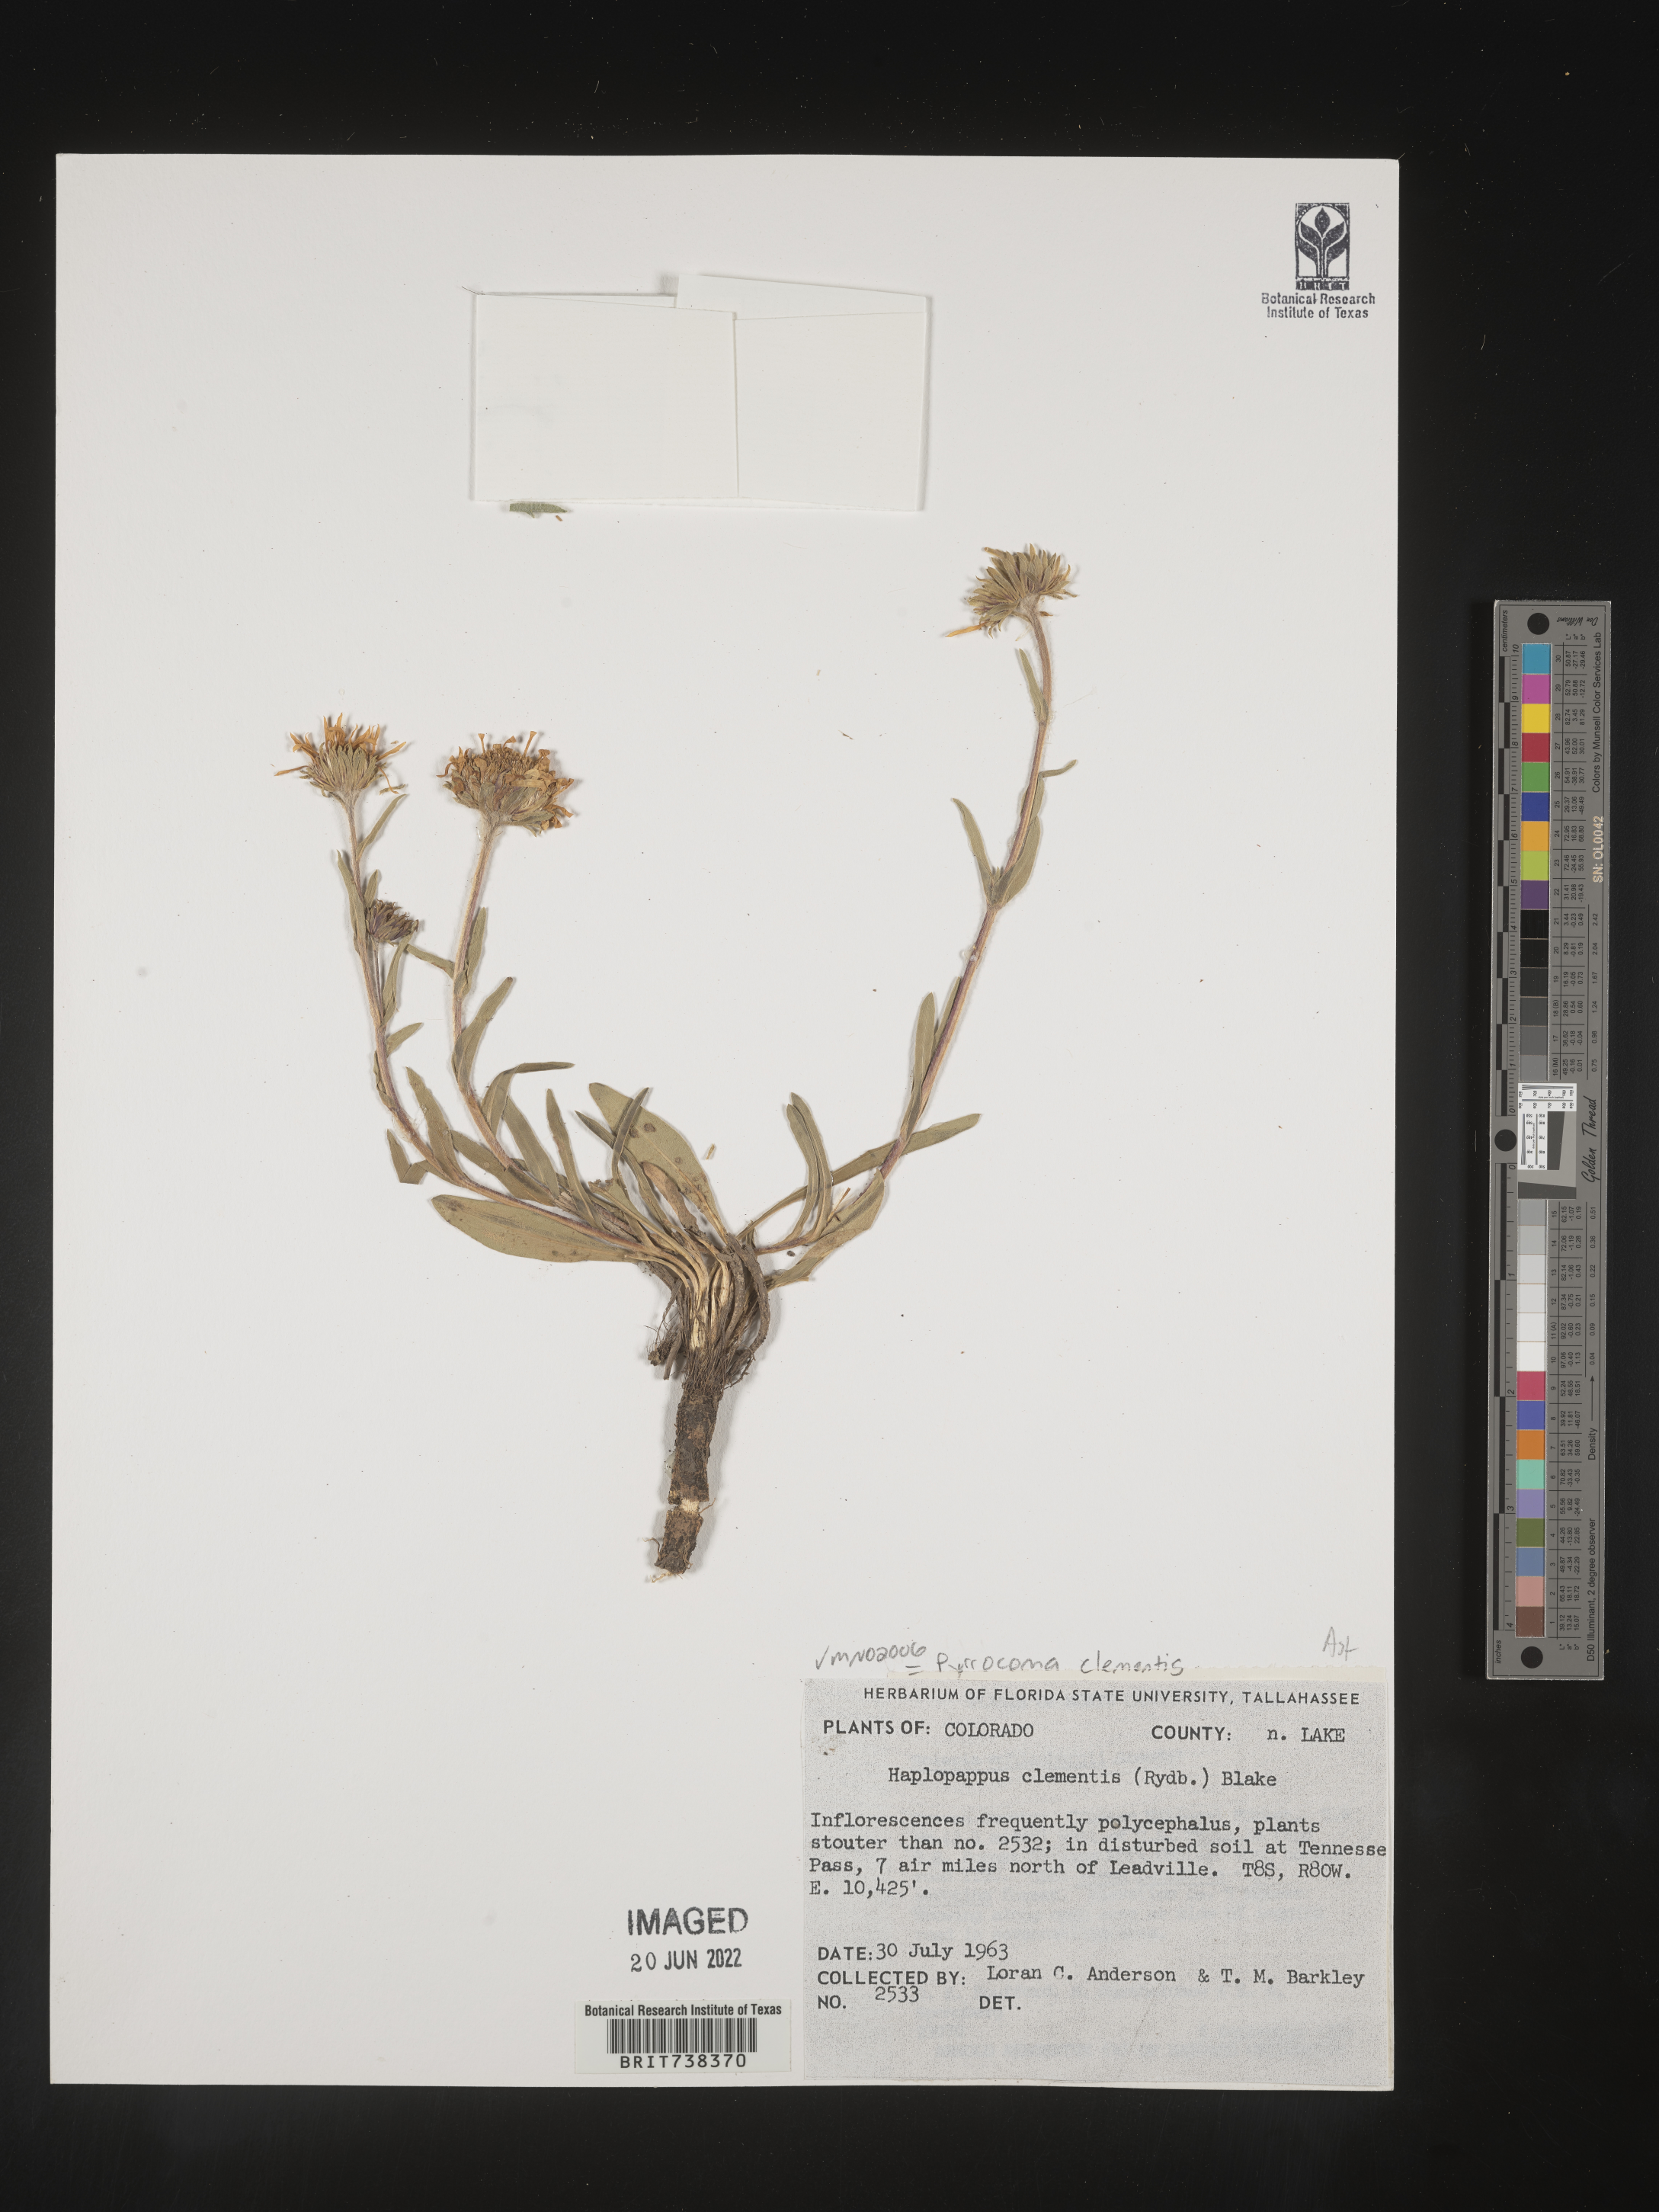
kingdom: Plantae
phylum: Tracheophyta
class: Magnoliopsida
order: Asterales
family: Asteraceae
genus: Pyrrocoma
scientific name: Pyrrocoma uniflora
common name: Plantain goldenweed
